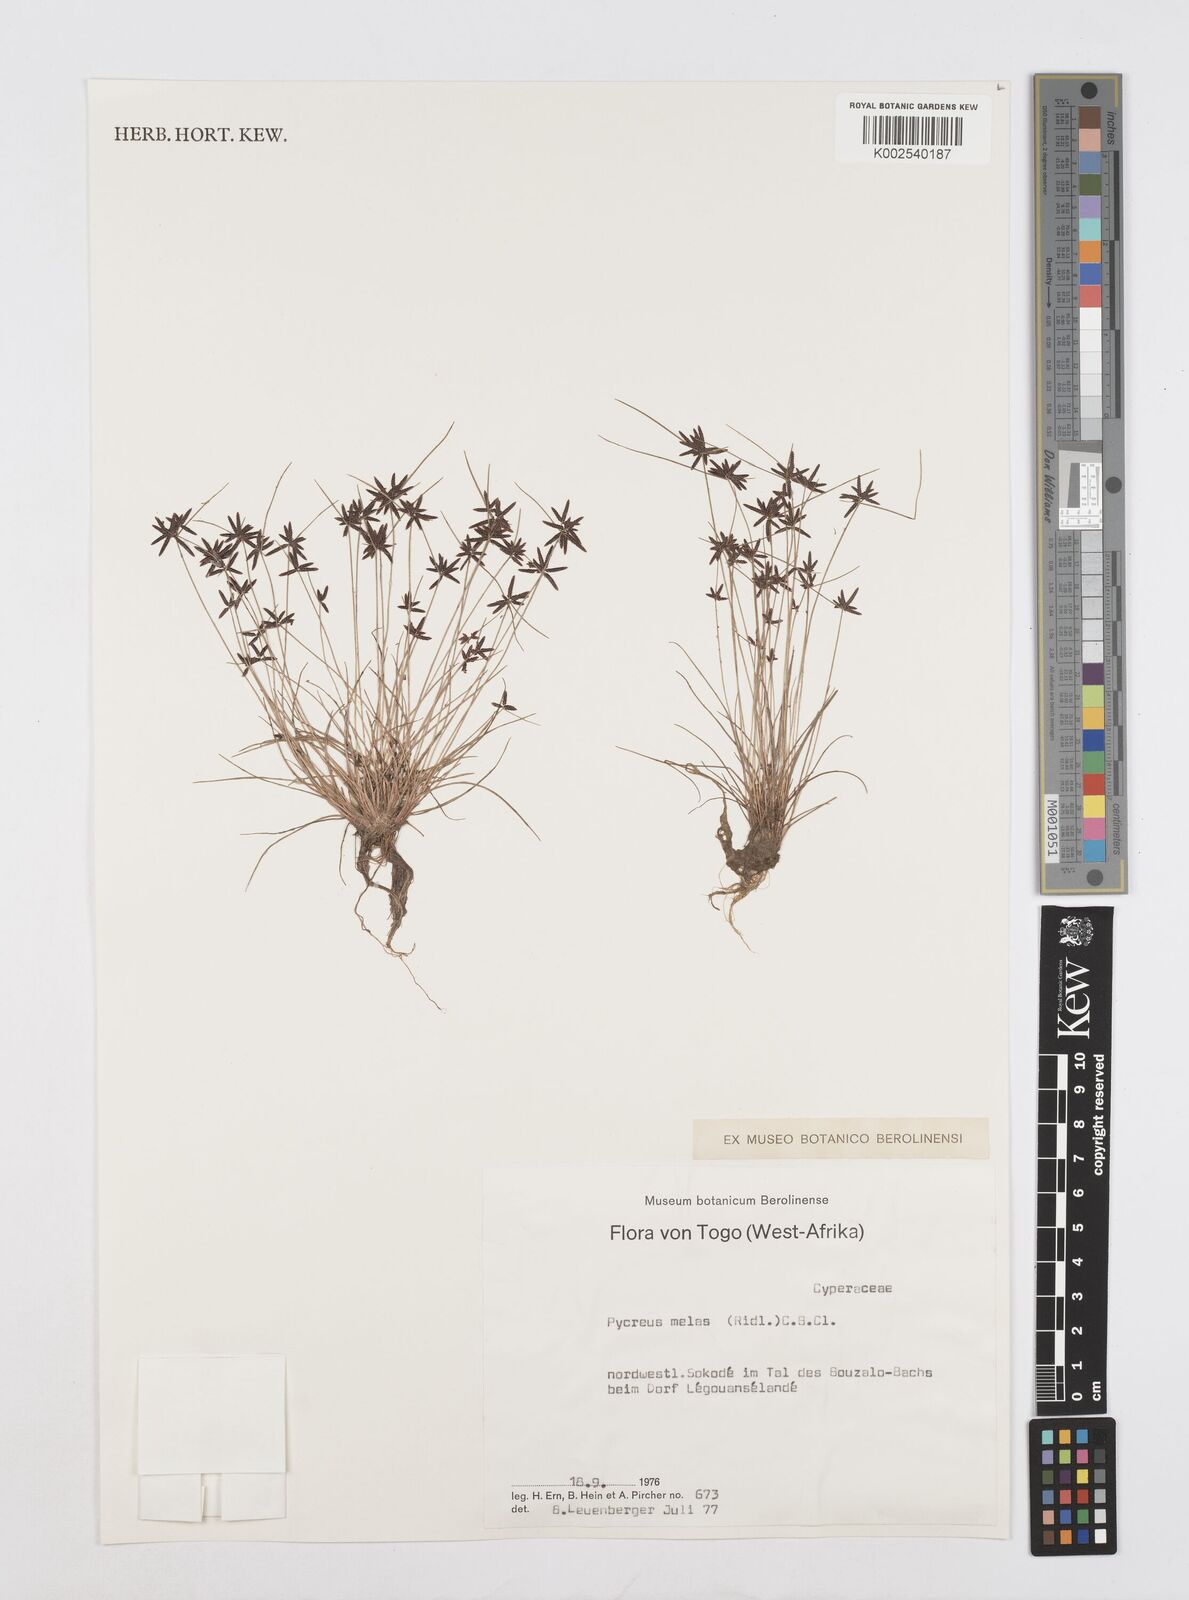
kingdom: Plantae
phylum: Tracheophyta
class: Liliopsida
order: Poales
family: Cyperaceae
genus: Cyperus
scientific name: Cyperus melas
